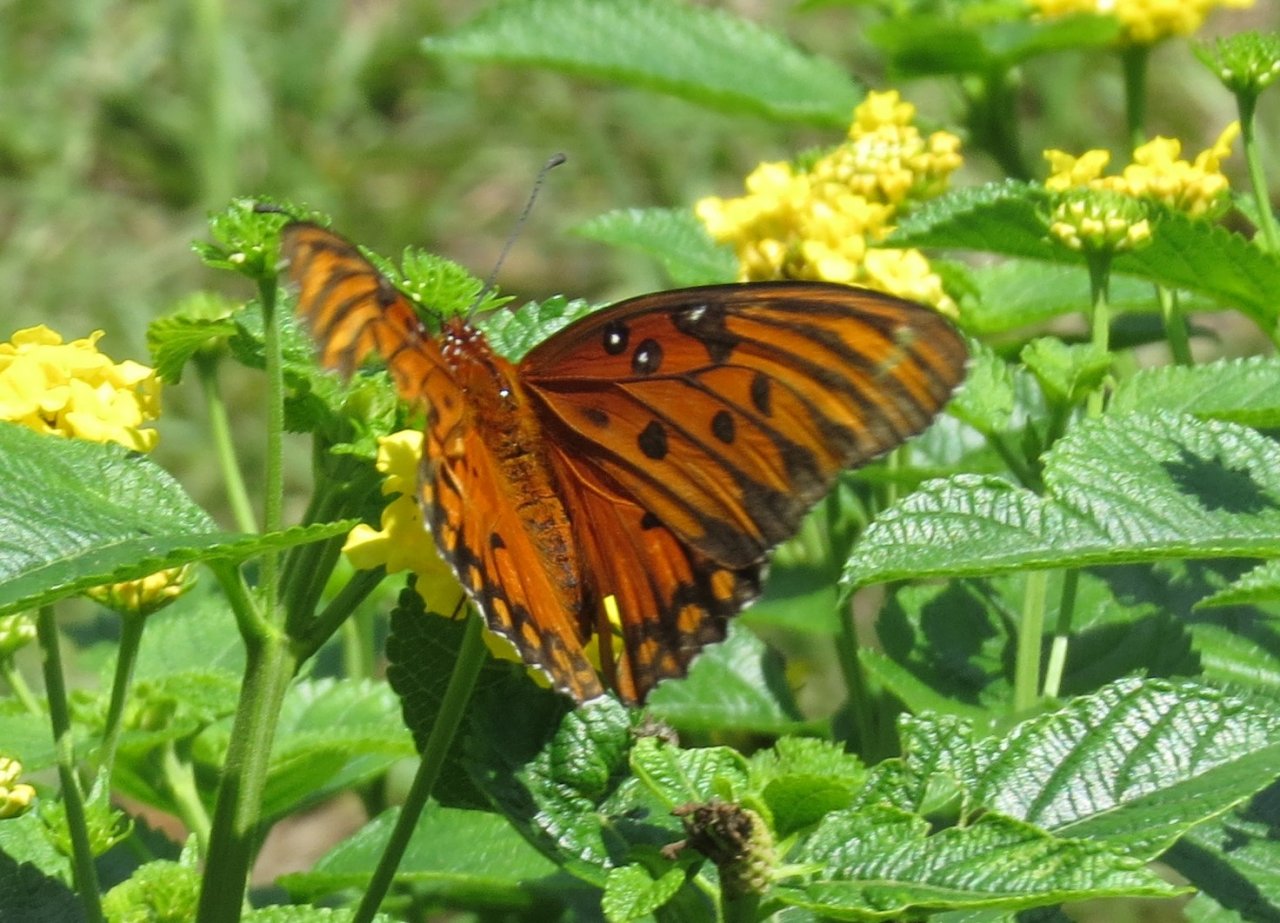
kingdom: Animalia
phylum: Arthropoda
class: Insecta
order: Lepidoptera
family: Nymphalidae
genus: Dione
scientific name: Dione vanillae
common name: Gulf Fritillary
